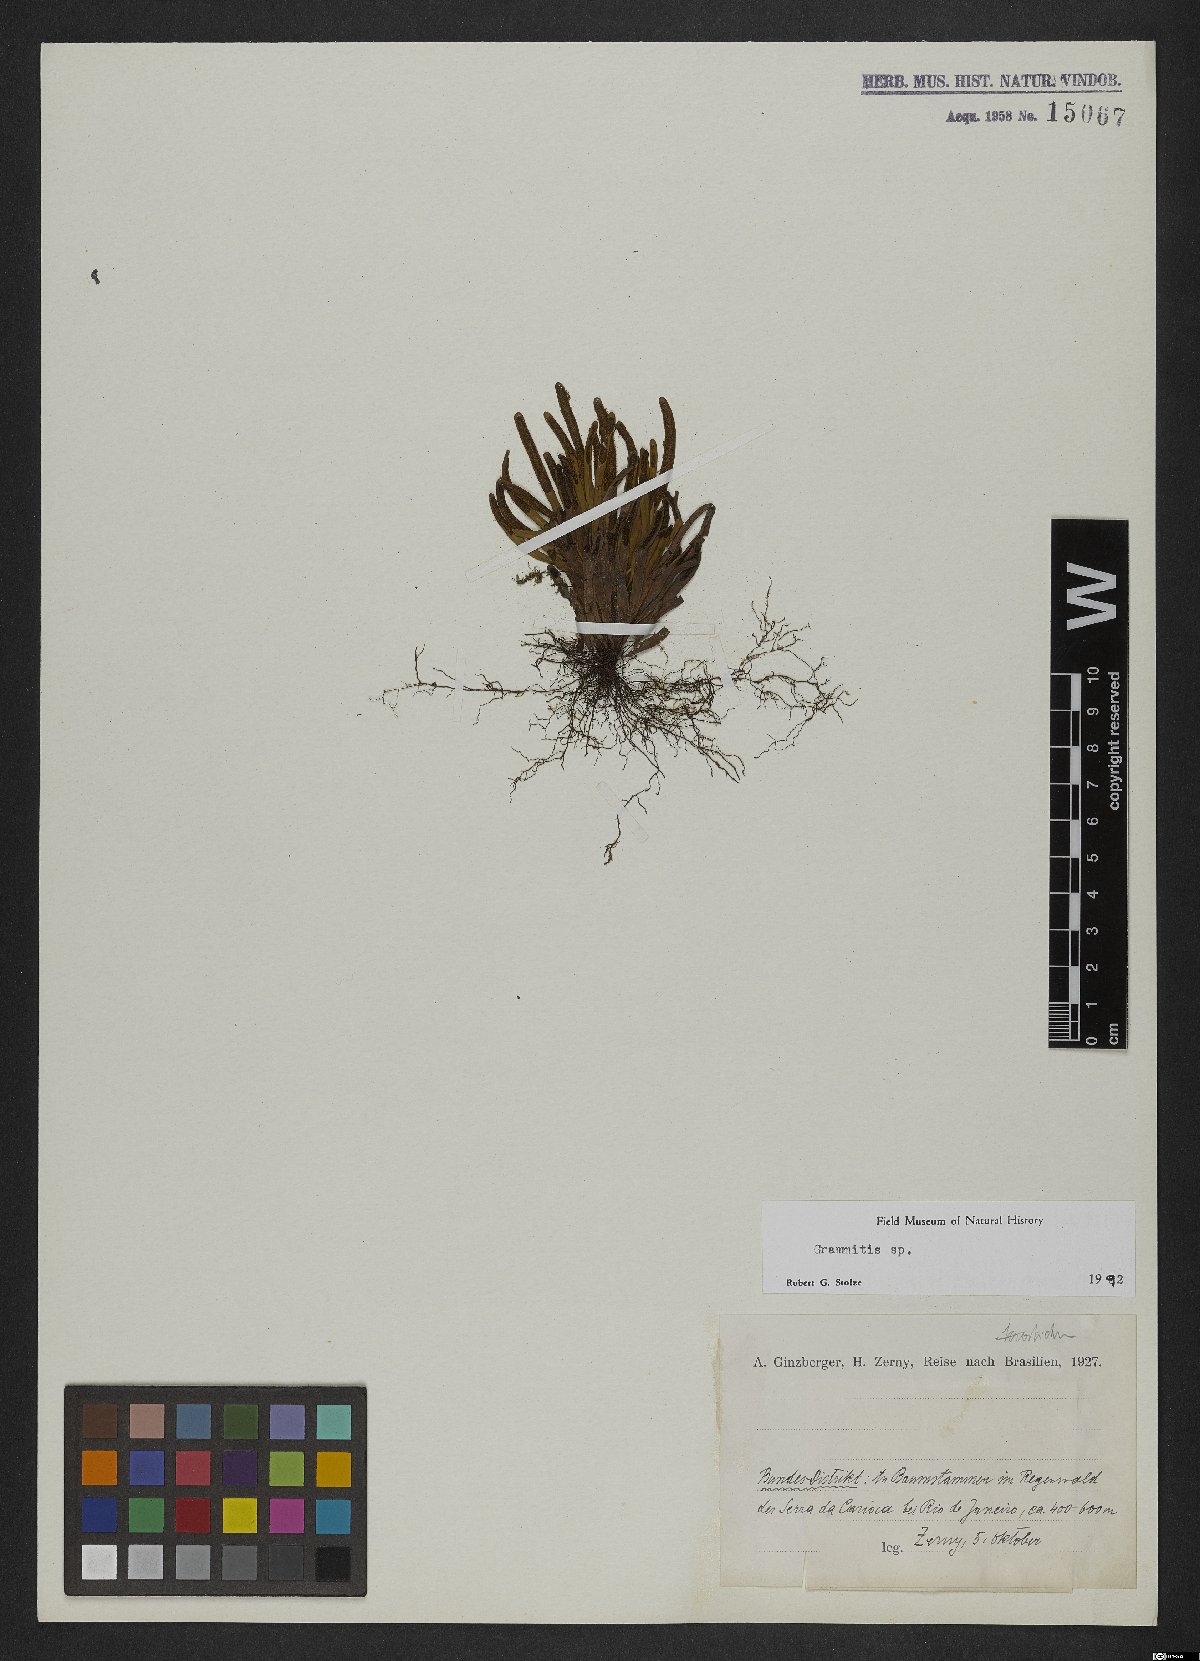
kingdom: Plantae
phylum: Tracheophyta
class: Polypodiopsida
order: Polypodiales
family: Polypodiaceae
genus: Grammitis
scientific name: Grammitis
